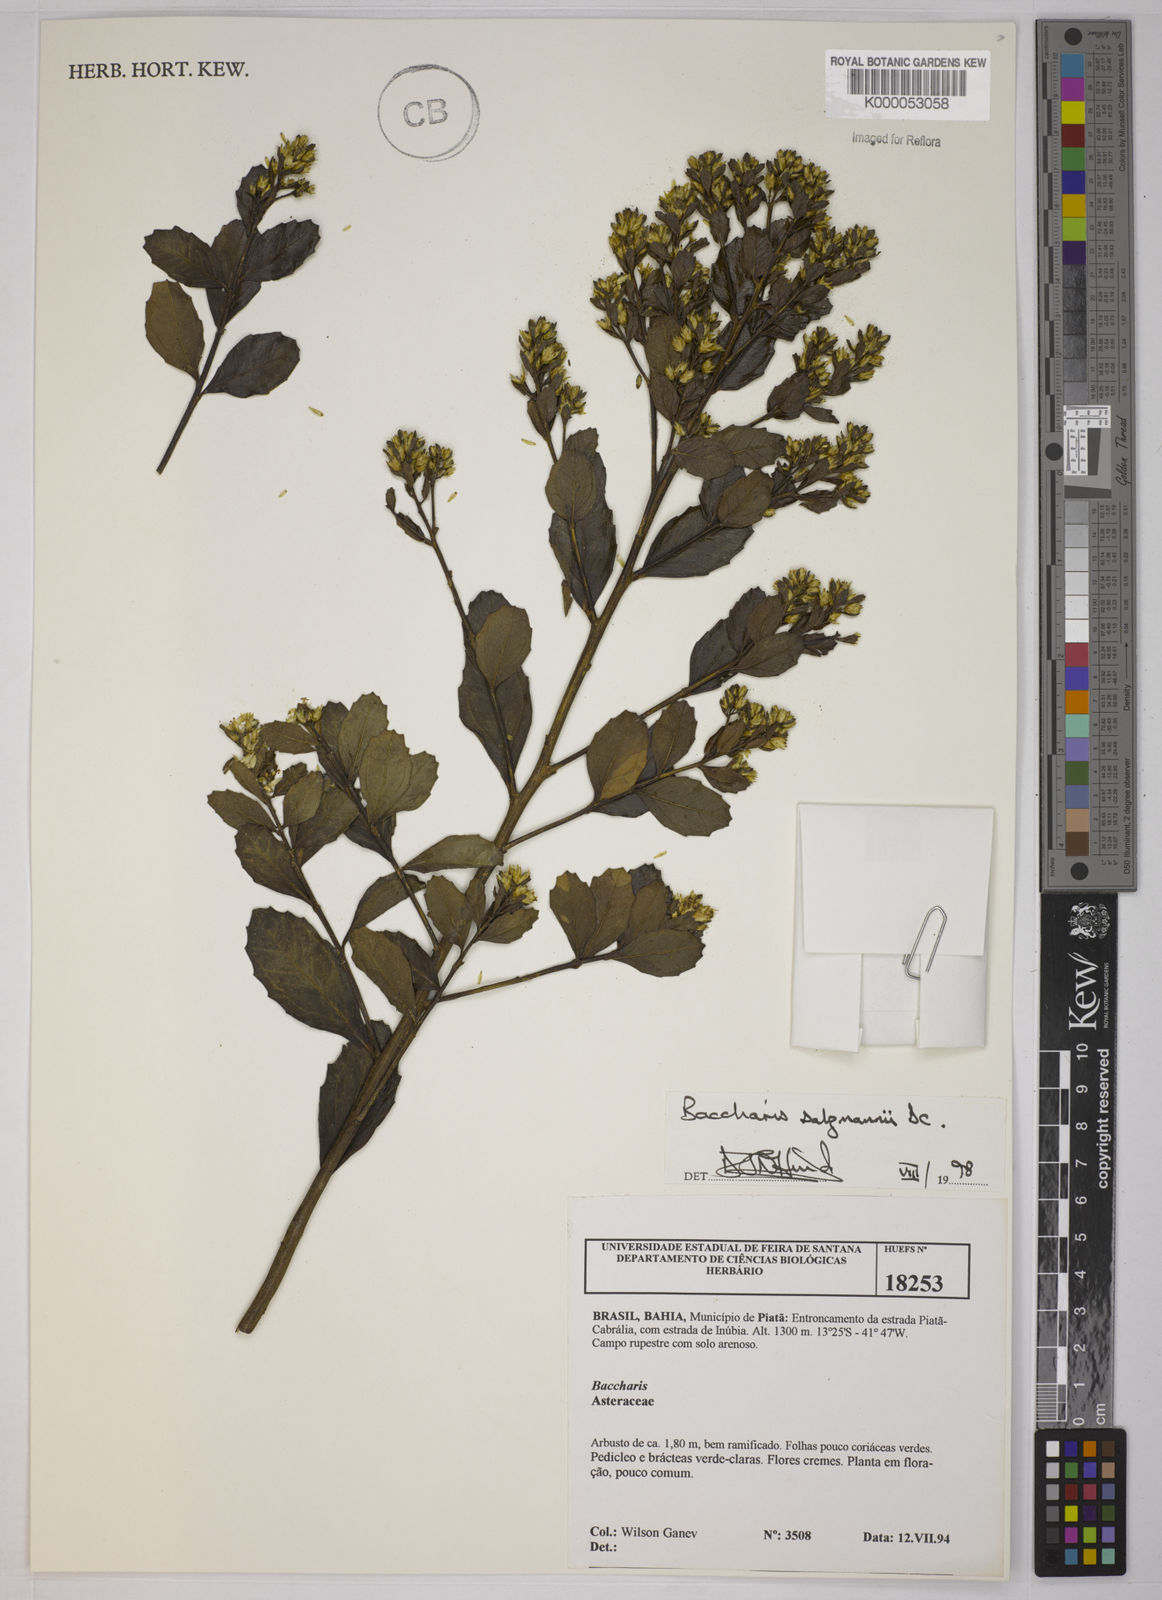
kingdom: Plantae
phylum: Tracheophyta
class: Magnoliopsida
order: Asterales
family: Asteraceae
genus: Baccharis
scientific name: Baccharis retusa
